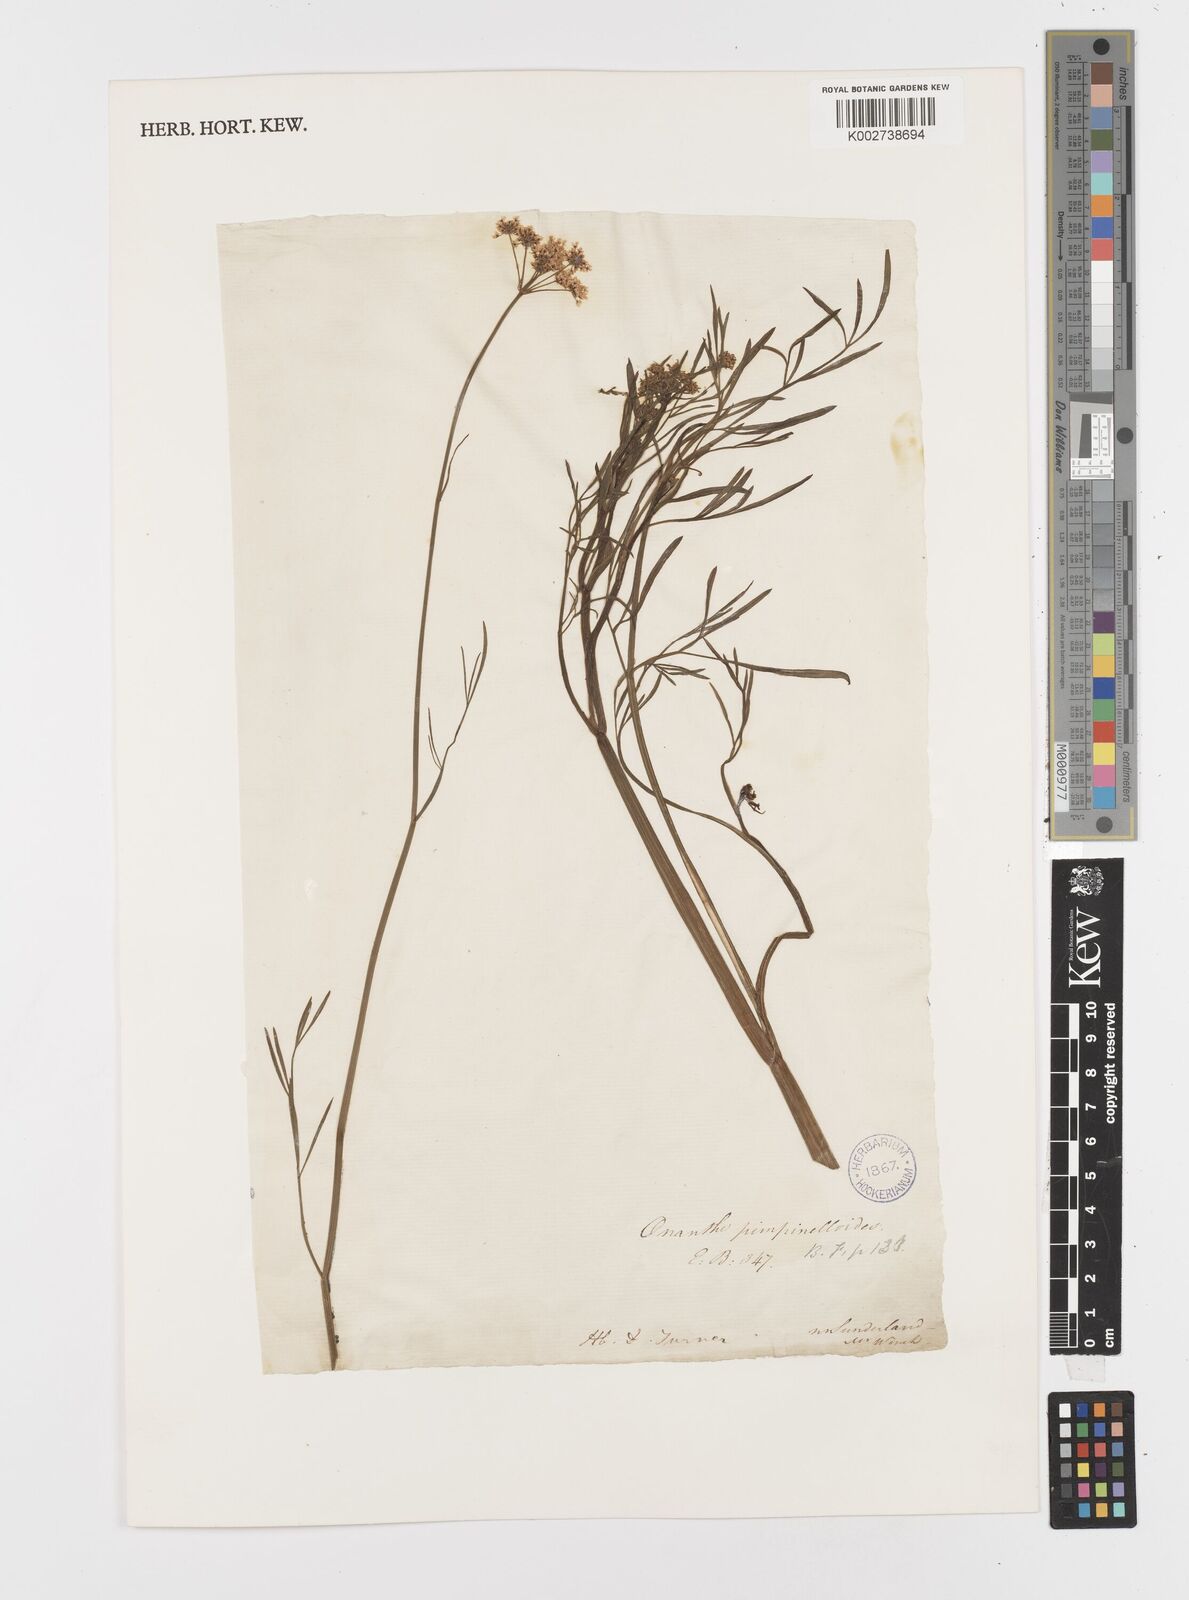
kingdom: Plantae
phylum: Tracheophyta
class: Magnoliopsida
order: Apiales
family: Apiaceae
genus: Oenanthe
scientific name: Oenanthe pimpinelloides
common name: Corky-fruited water-dropwort
